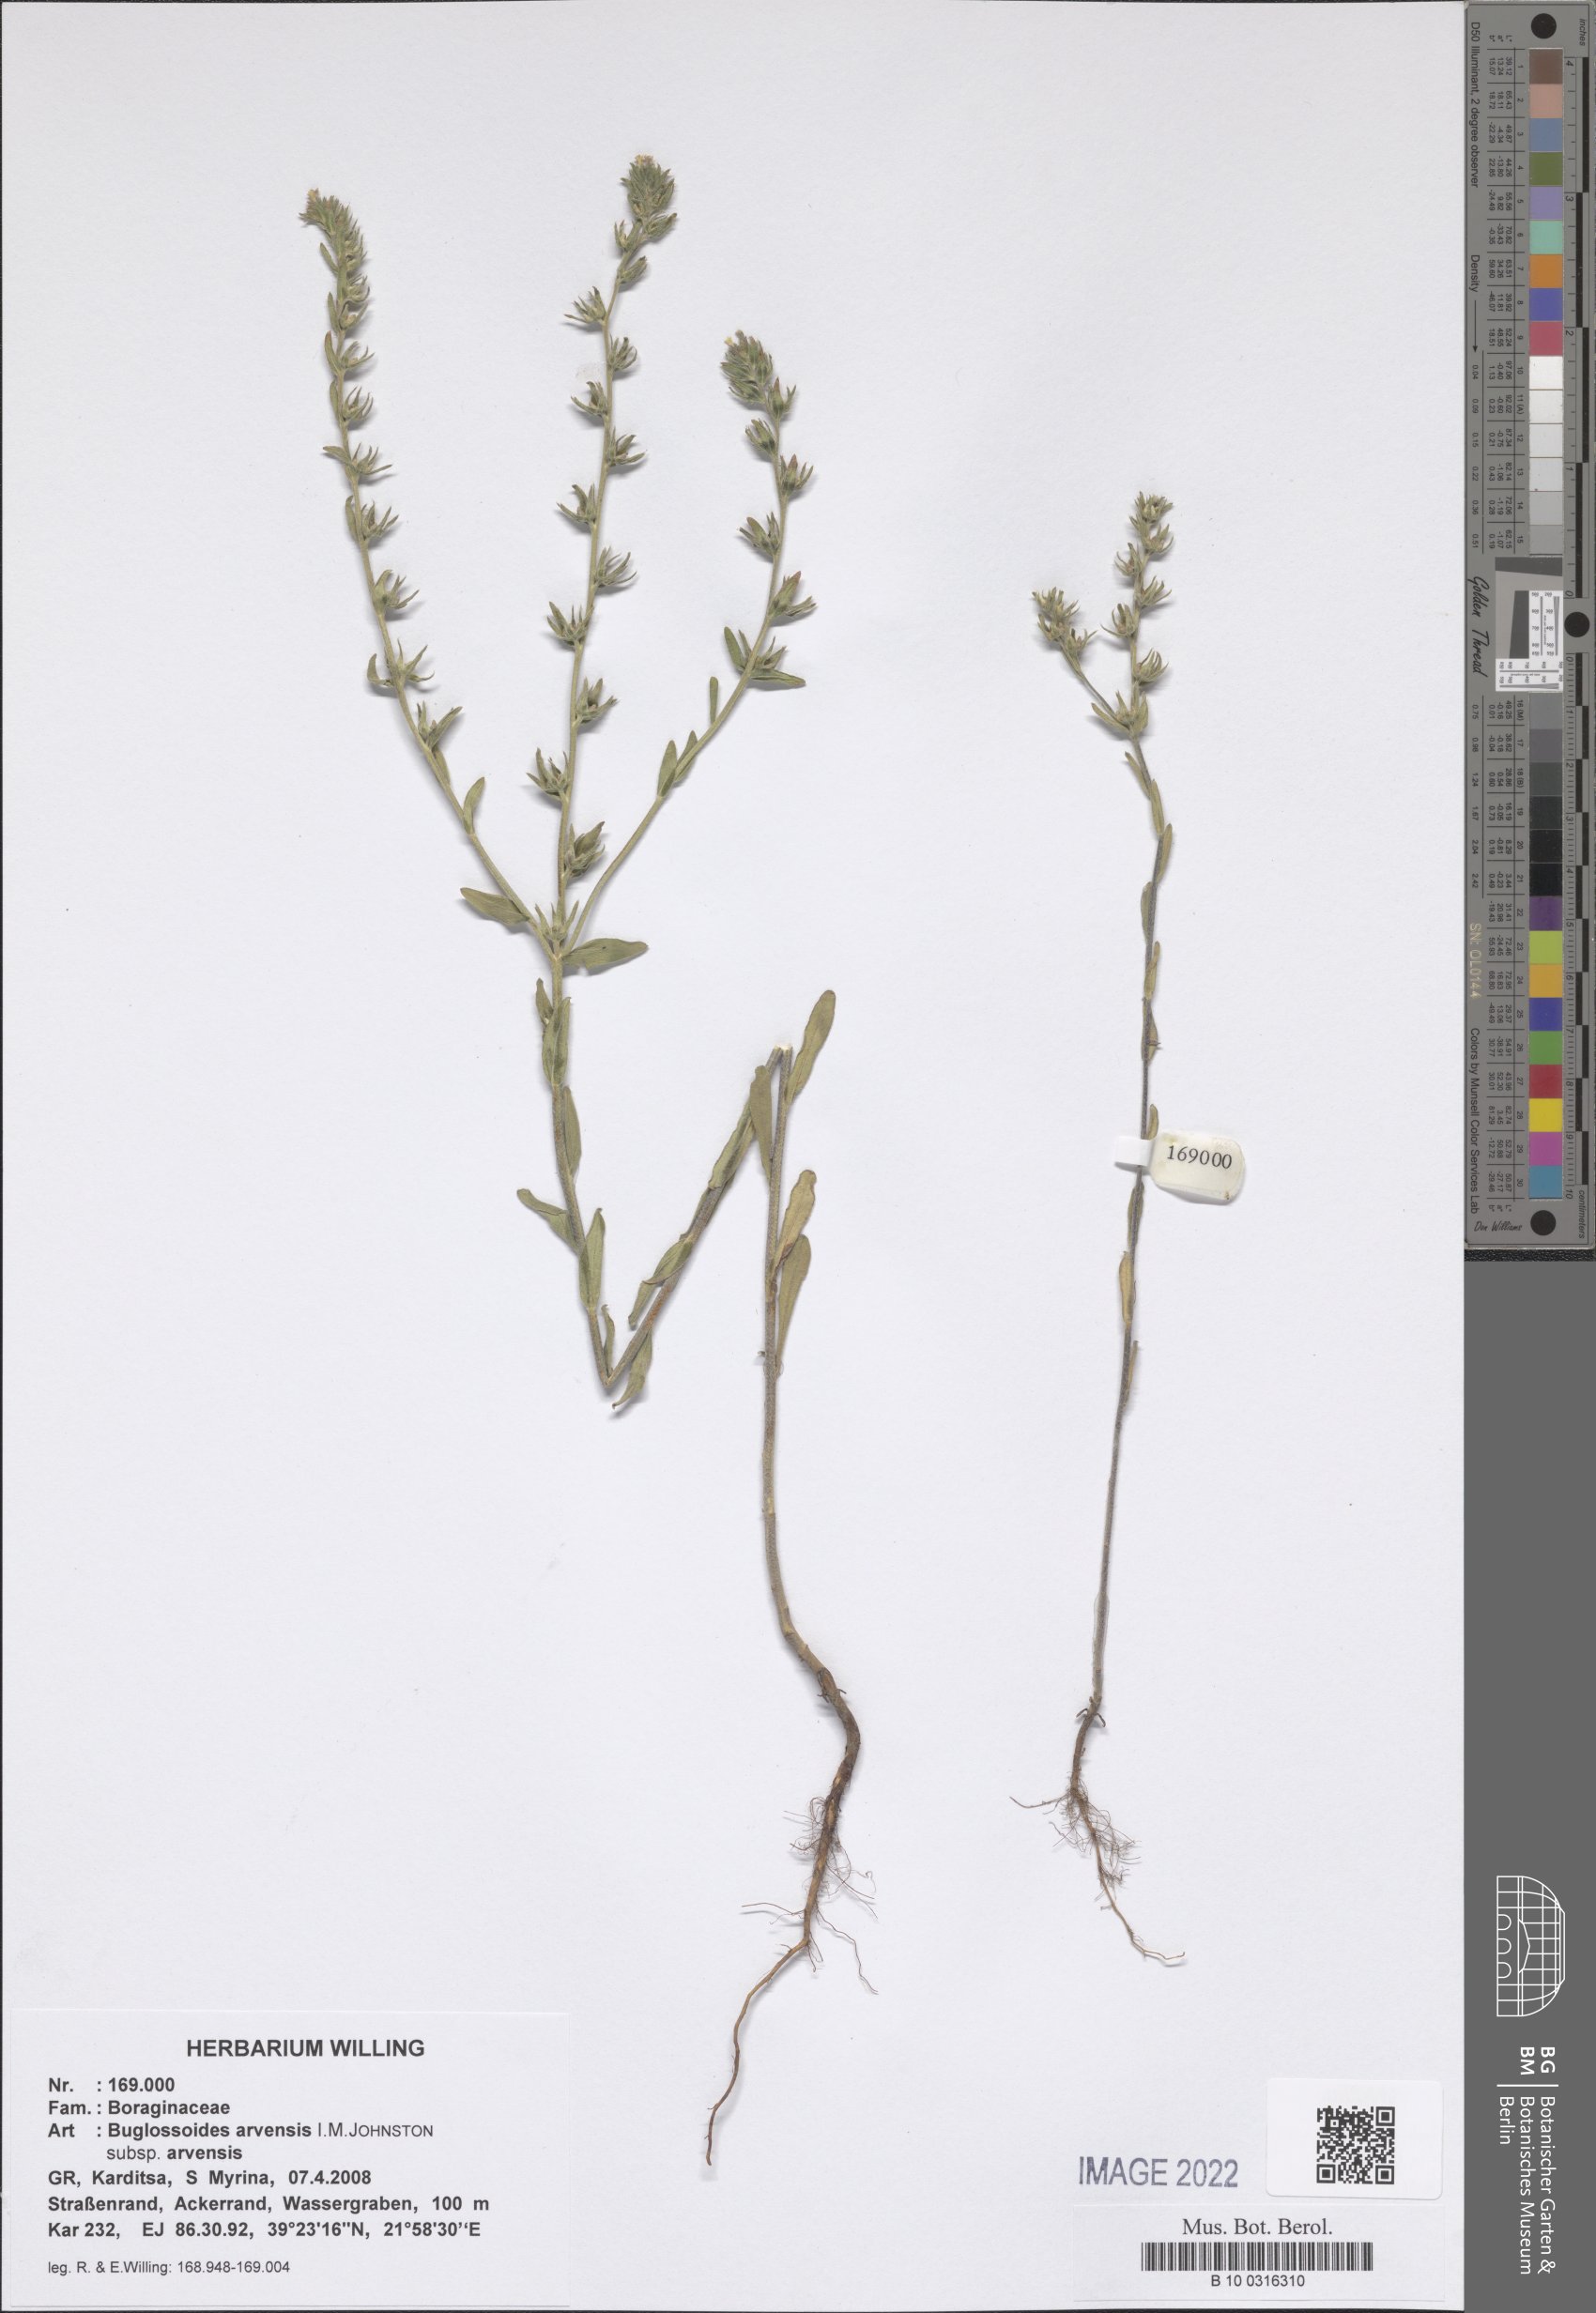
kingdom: Plantae
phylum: Tracheophyta
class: Magnoliopsida
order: Boraginales
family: Boraginaceae
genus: Buglossoides
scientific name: Buglossoides arvensis
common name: Corn gromwell
